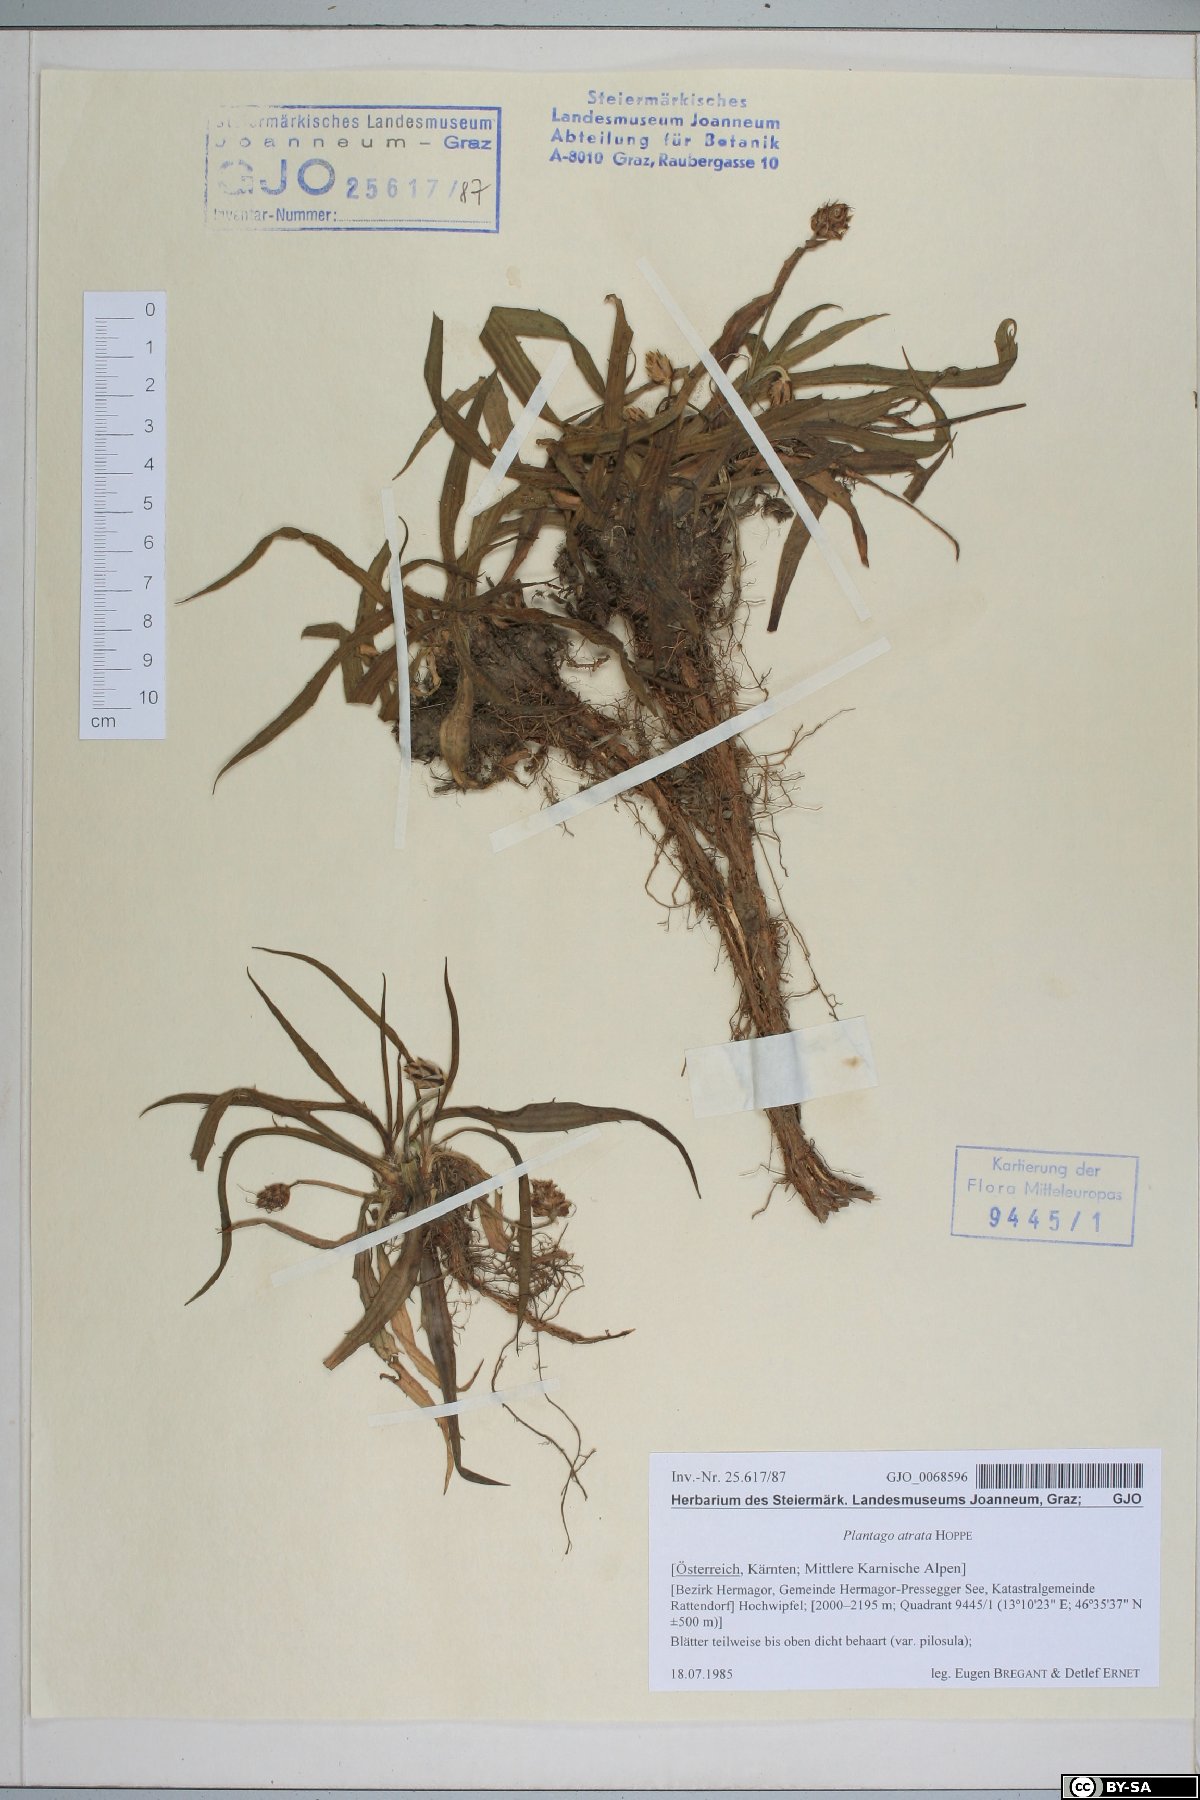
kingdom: Plantae
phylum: Tracheophyta
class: Magnoliopsida
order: Lamiales
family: Plantaginaceae
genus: Plantago
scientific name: Plantago atrata
